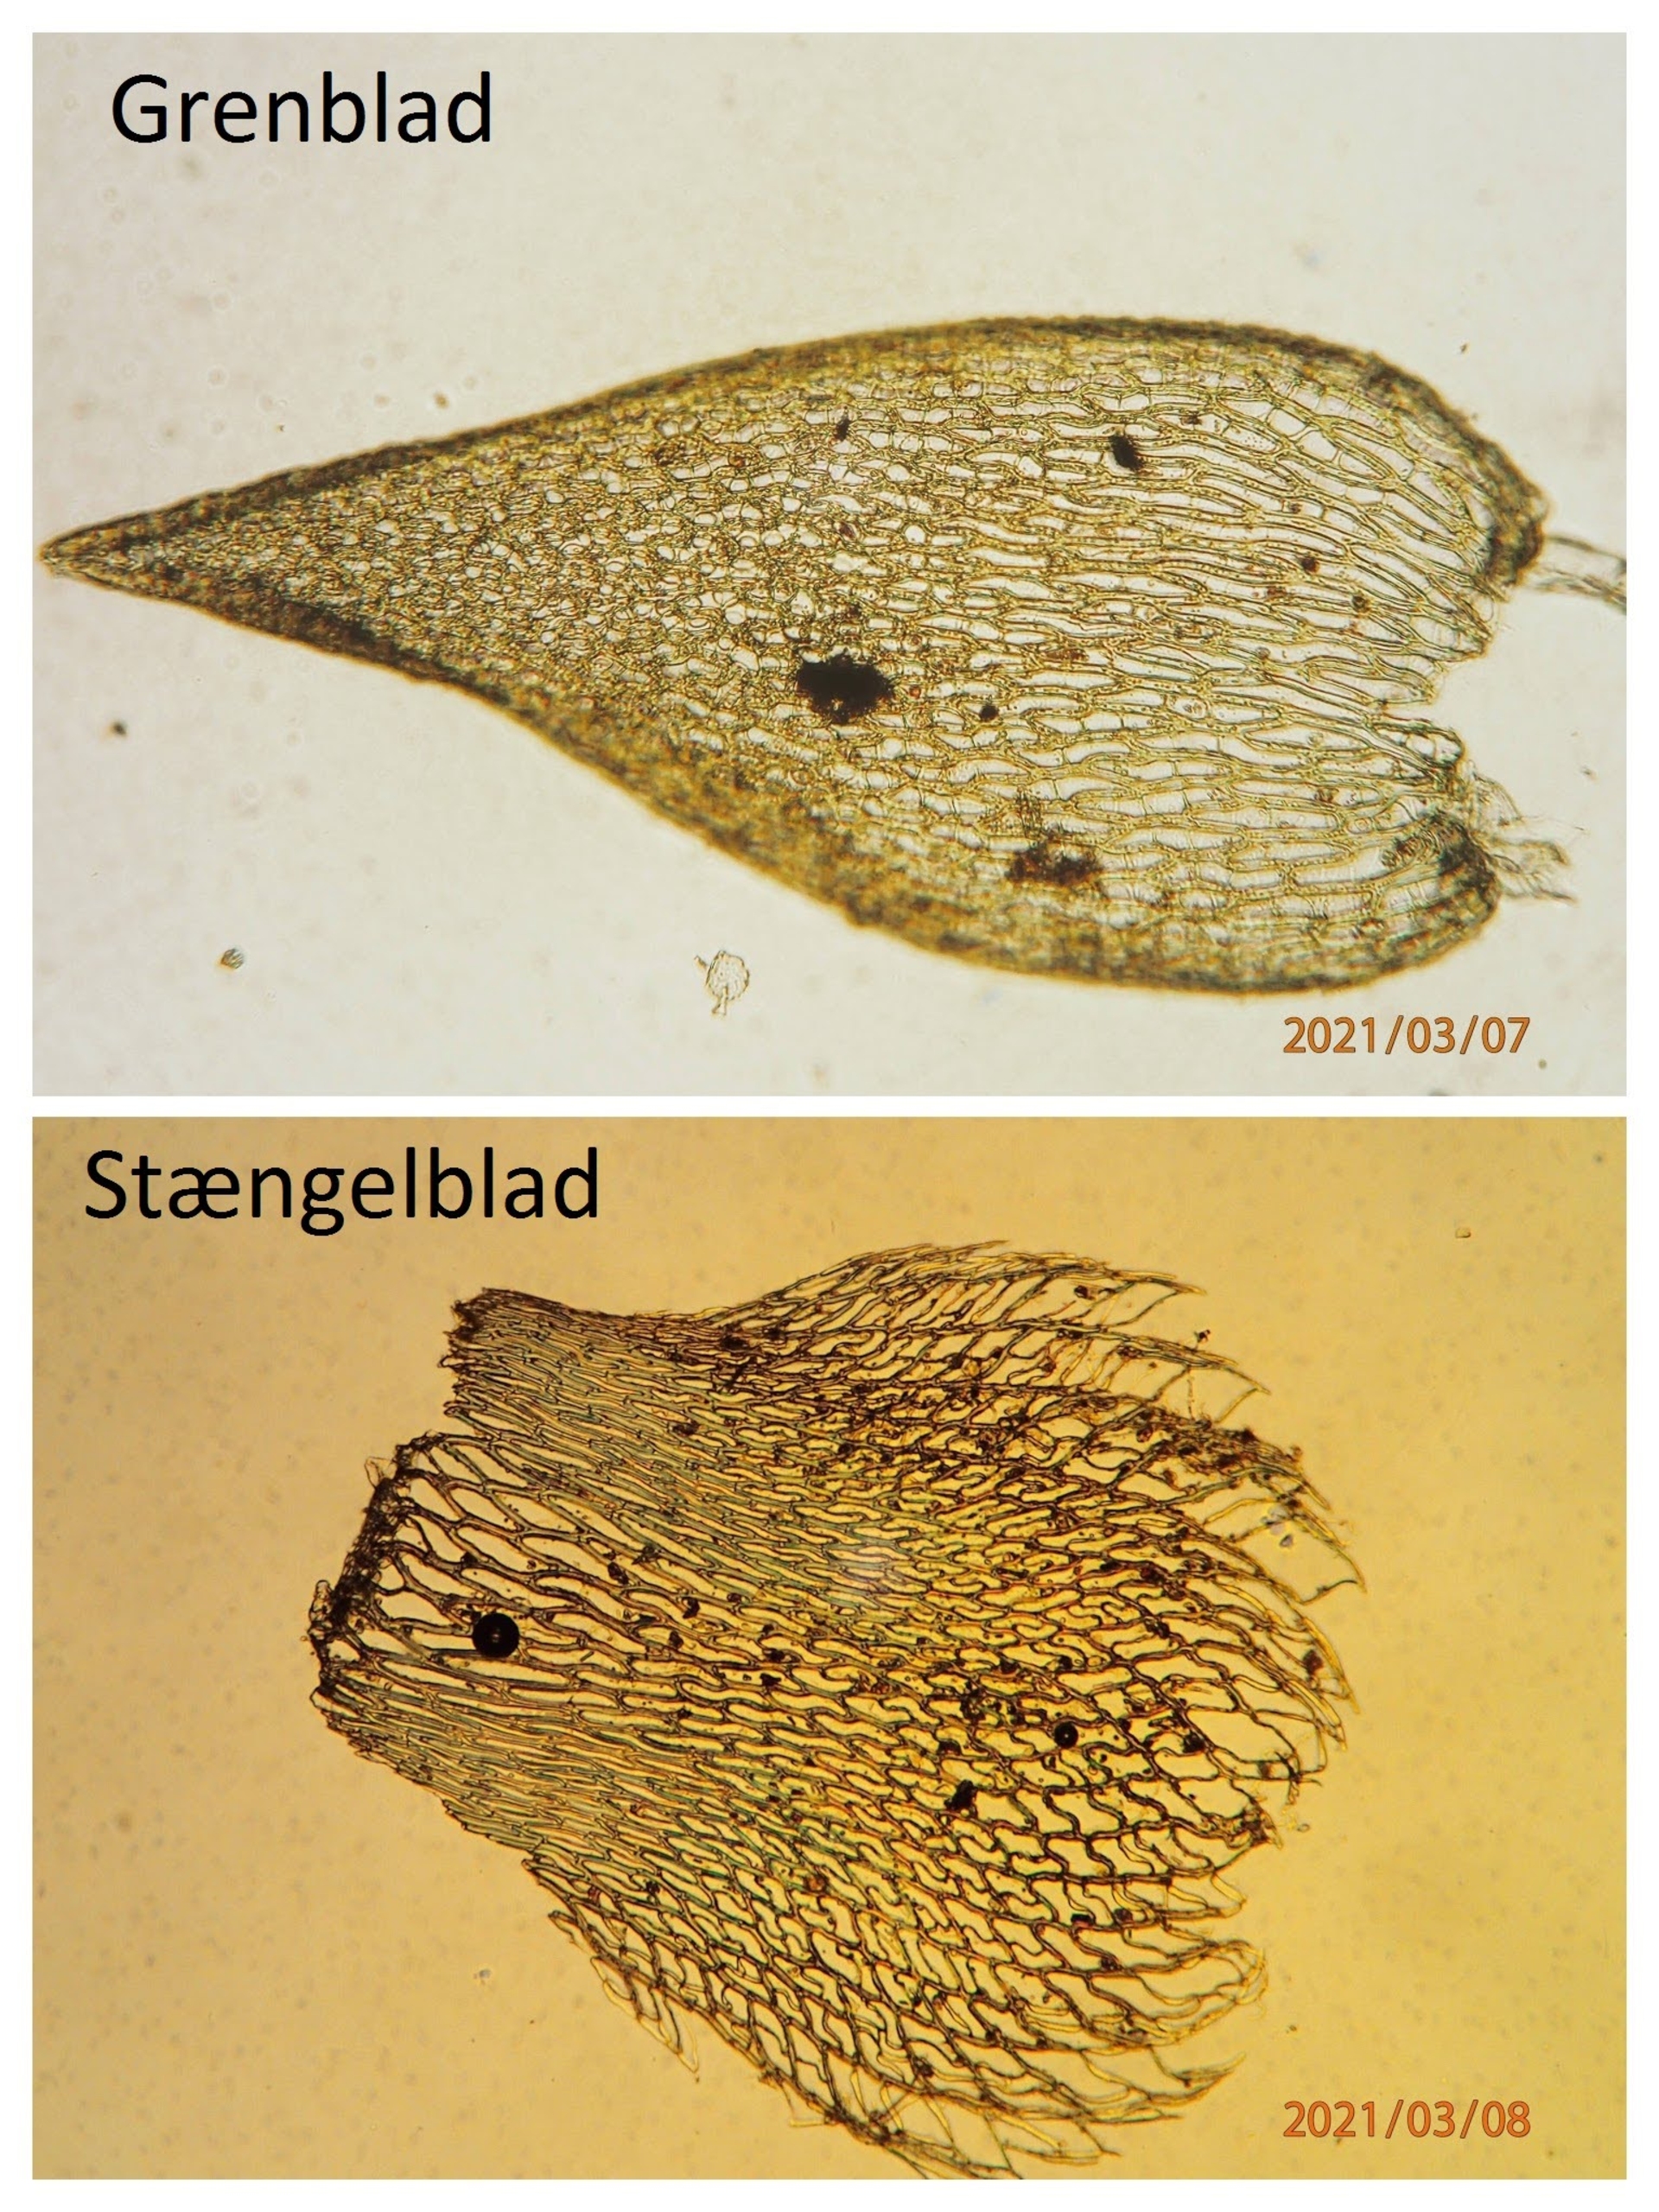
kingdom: Plantae
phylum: Bryophyta
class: Sphagnopsida
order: Sphagnales
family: Sphagnaceae
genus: Sphagnum
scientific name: Sphagnum fimbriatum
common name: Frynset tørvemos
